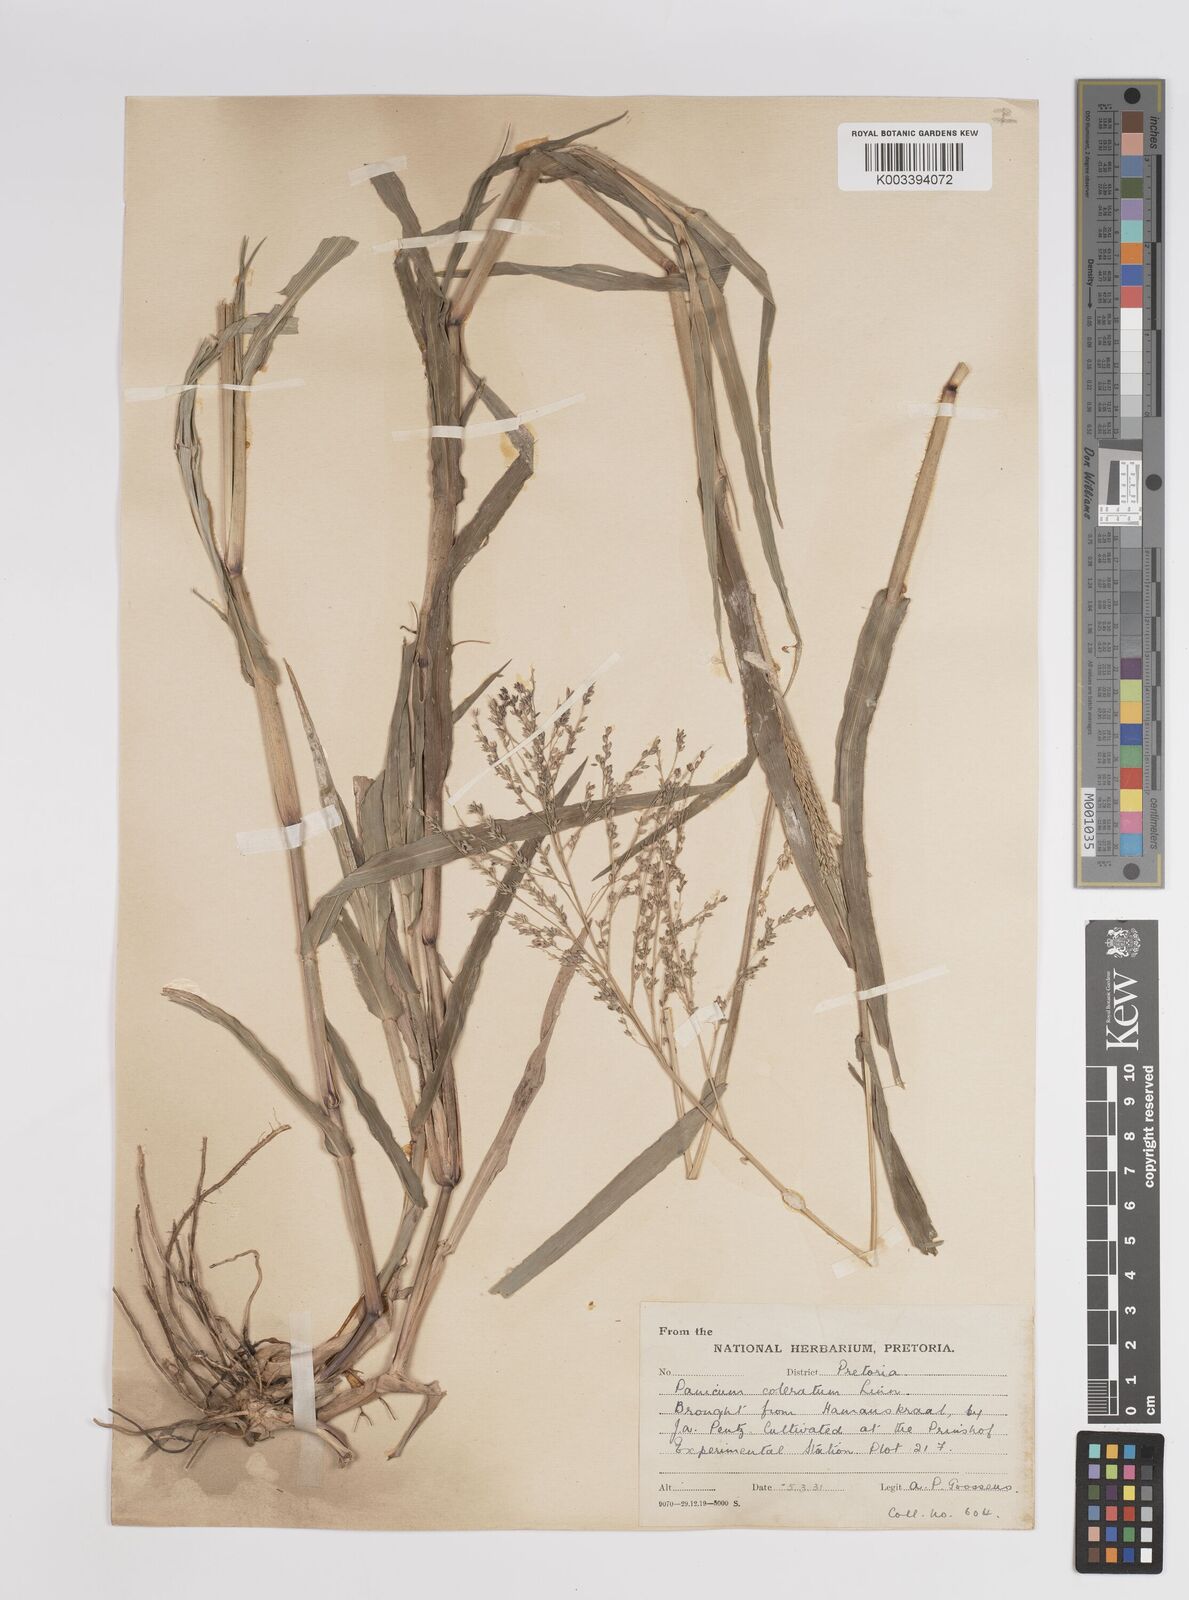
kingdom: Plantae
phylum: Tracheophyta
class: Liliopsida
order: Poales
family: Poaceae
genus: Panicum
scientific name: Panicum coloratum
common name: Kleingrass
